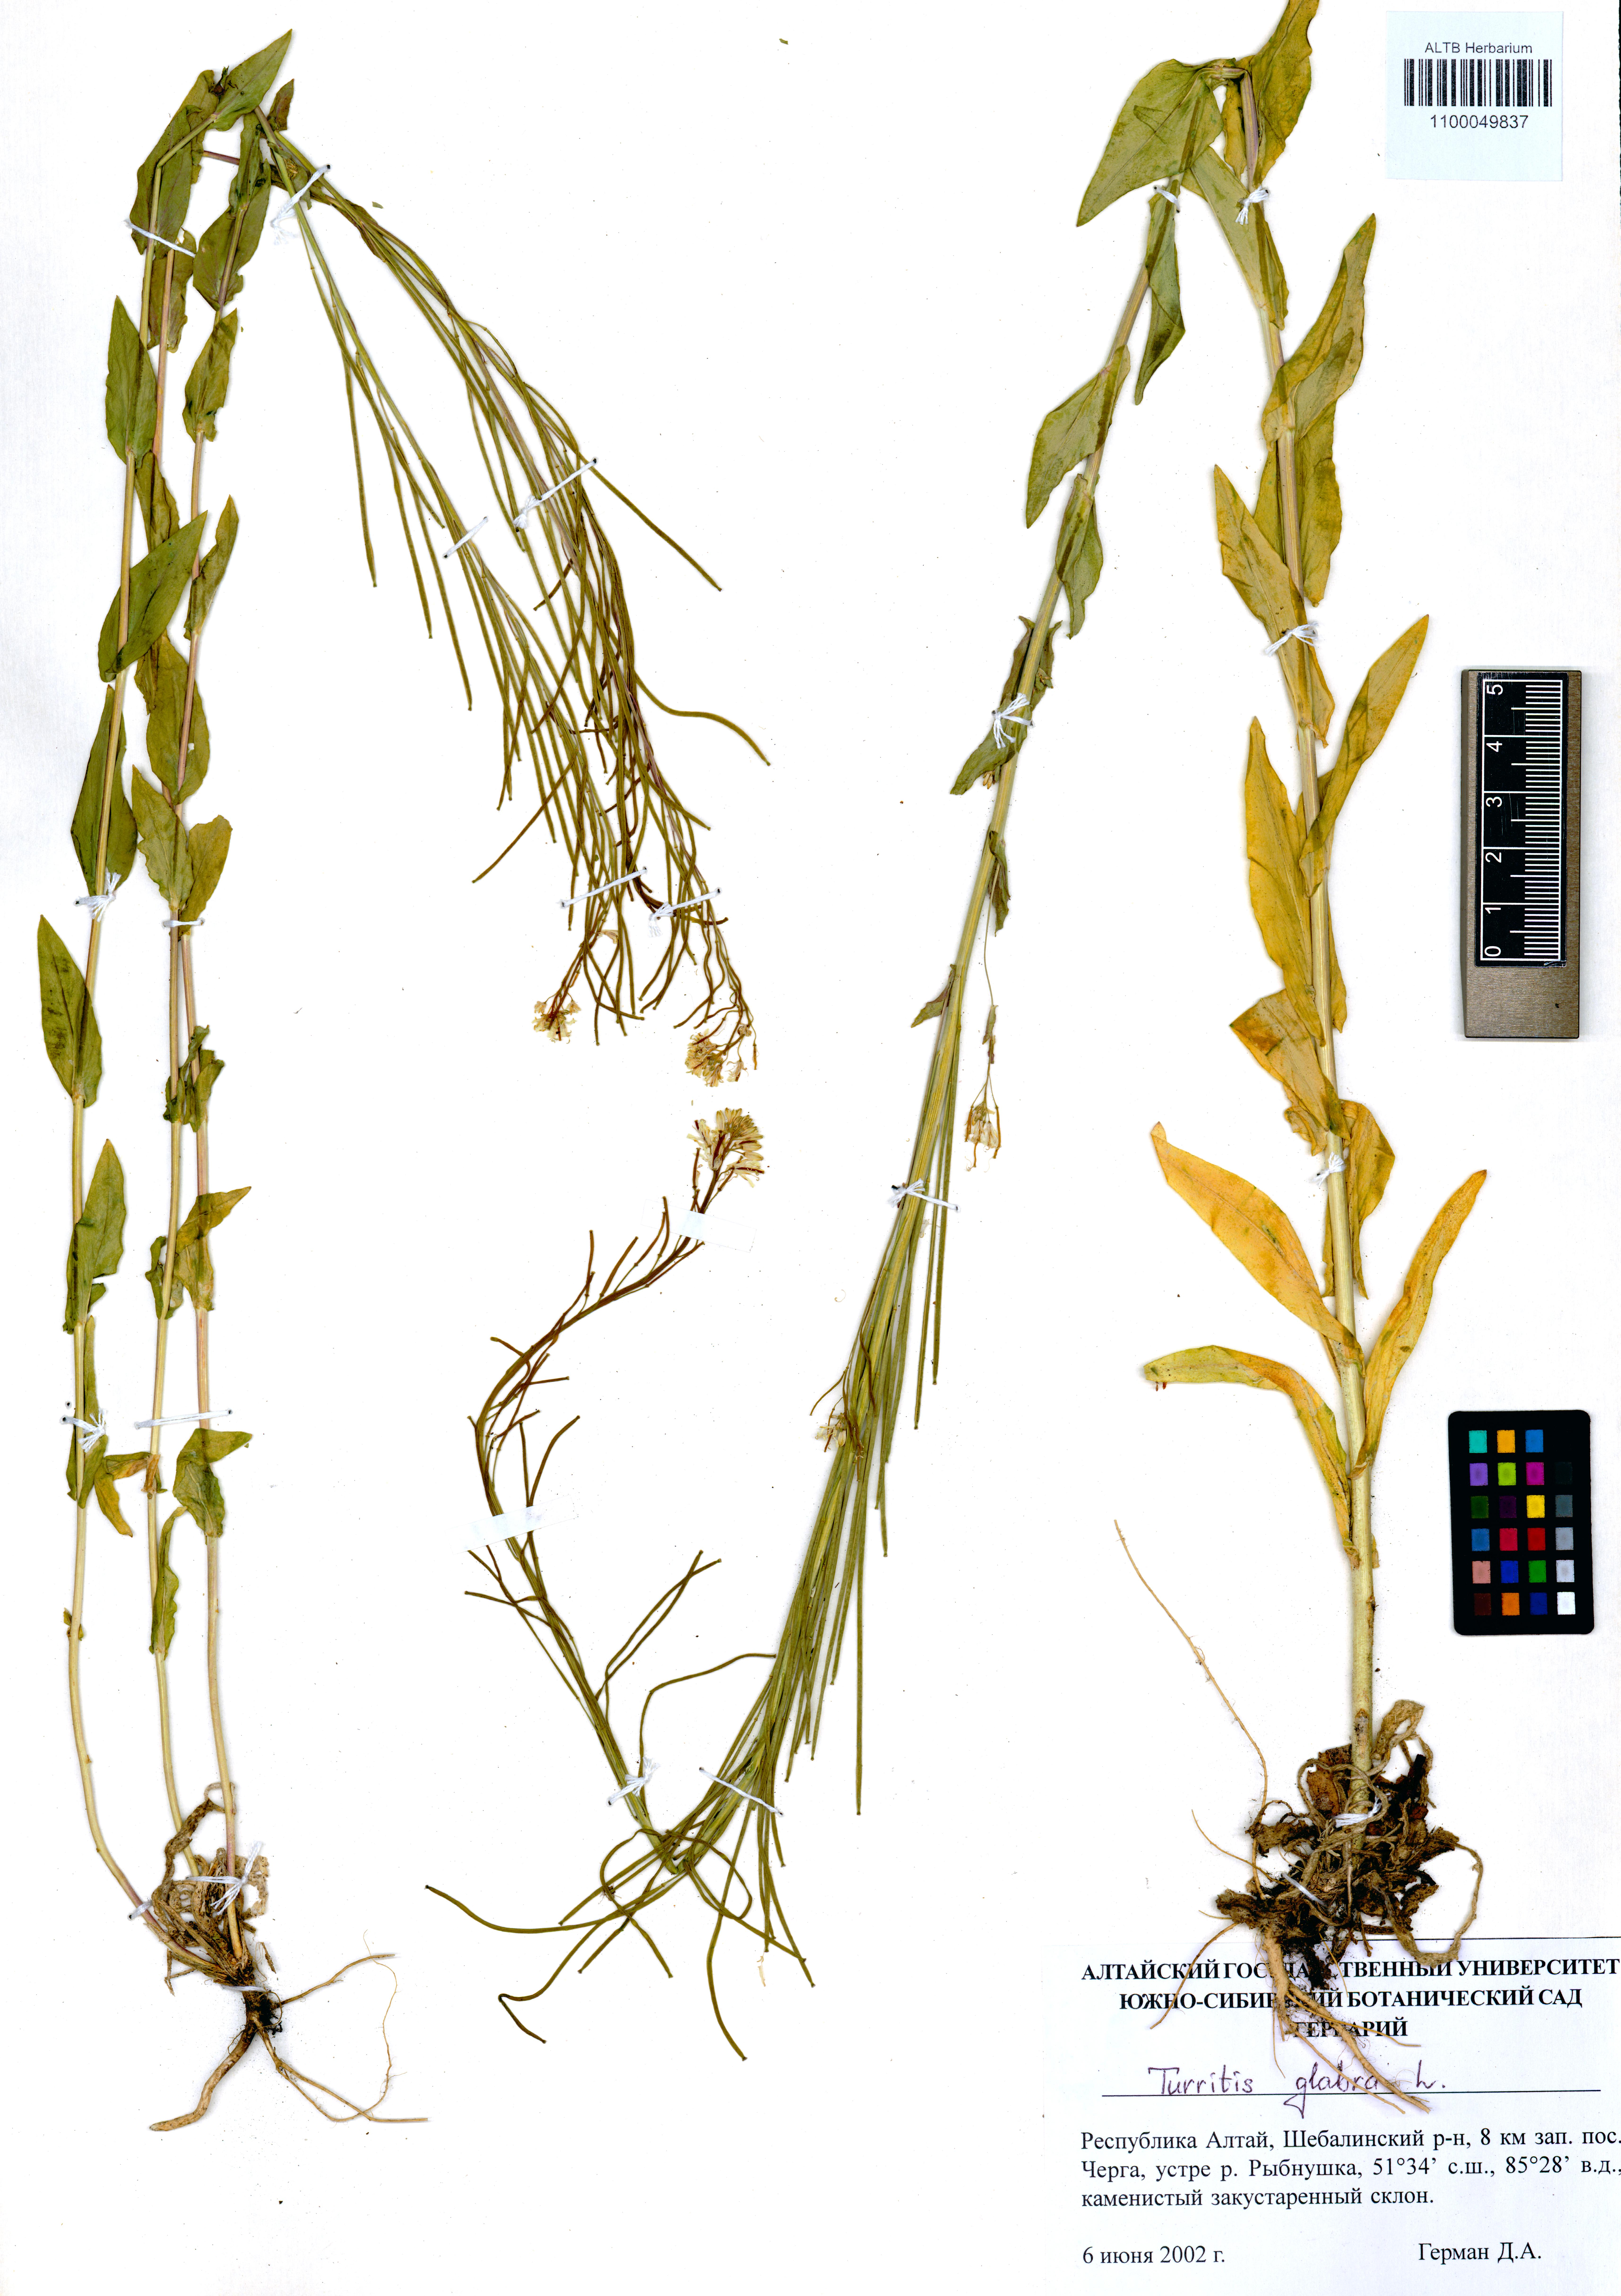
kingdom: Plantae
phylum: Tracheophyta
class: Magnoliopsida
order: Brassicales
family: Brassicaceae
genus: Turritis
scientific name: Turritis glabra
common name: Tower rockcress
